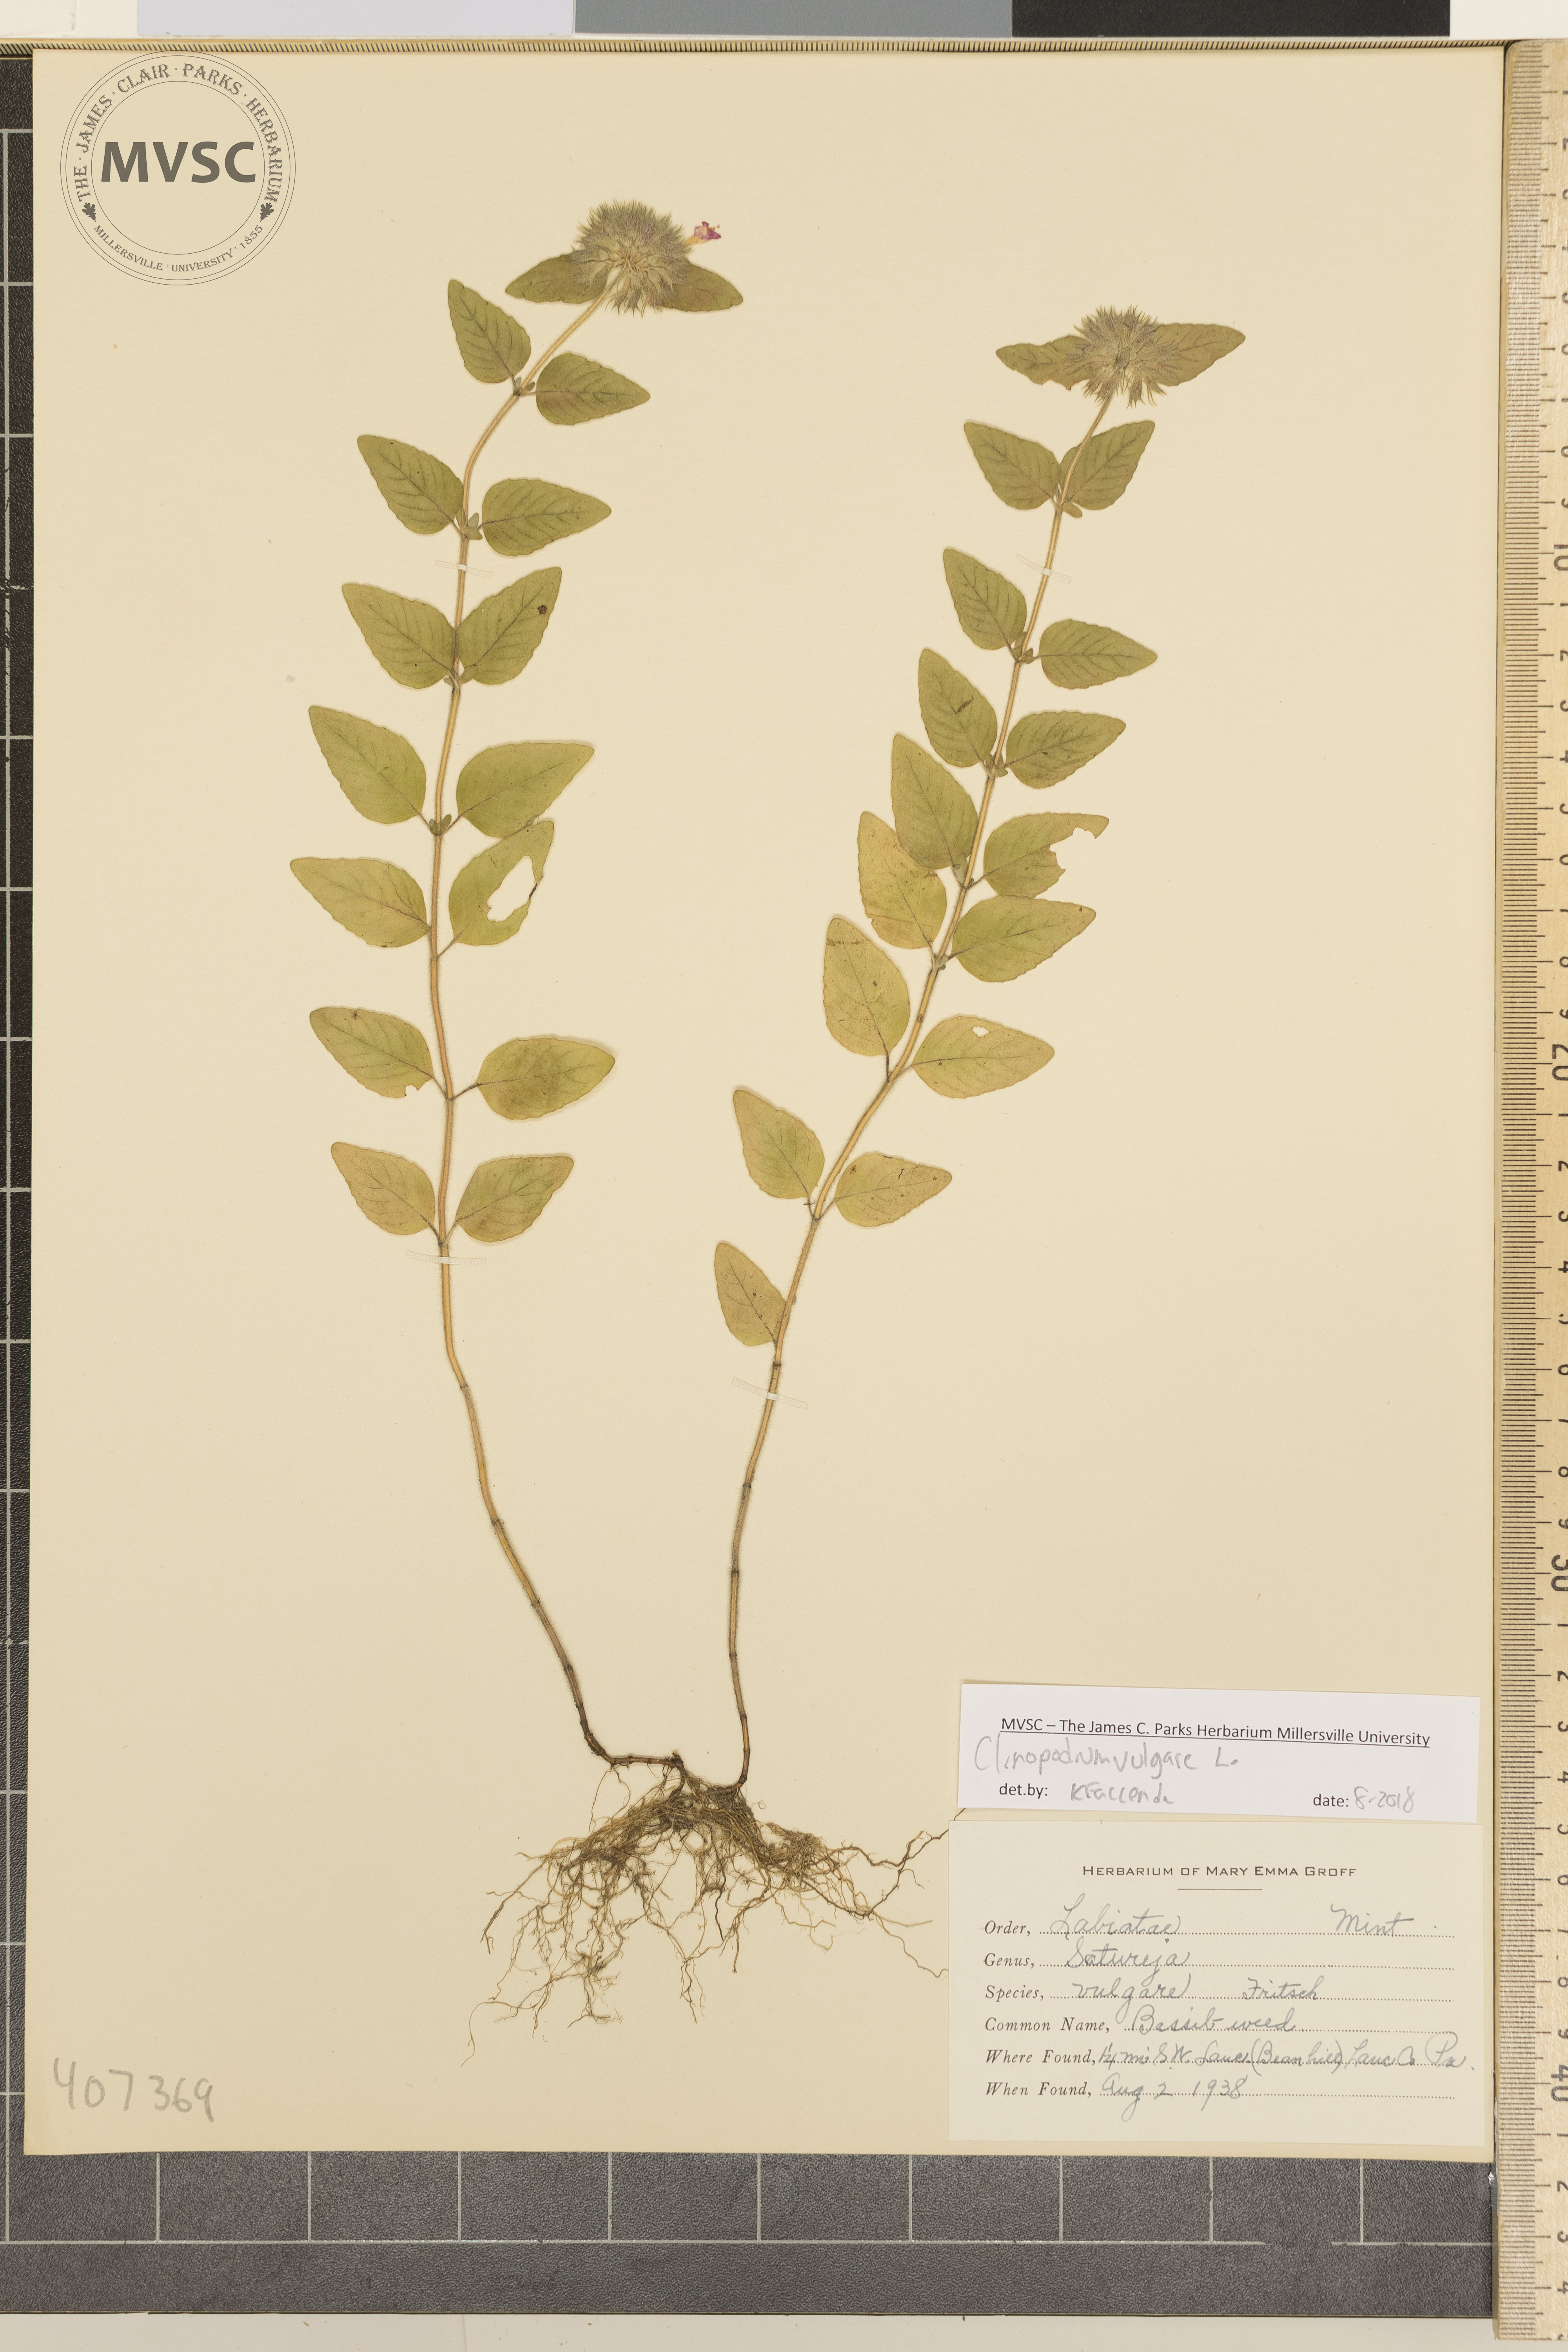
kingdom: Plantae
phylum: Tracheophyta
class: Magnoliopsida
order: Lamiales
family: Lamiaceae
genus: Clinopodium
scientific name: Clinopodium vulgare
